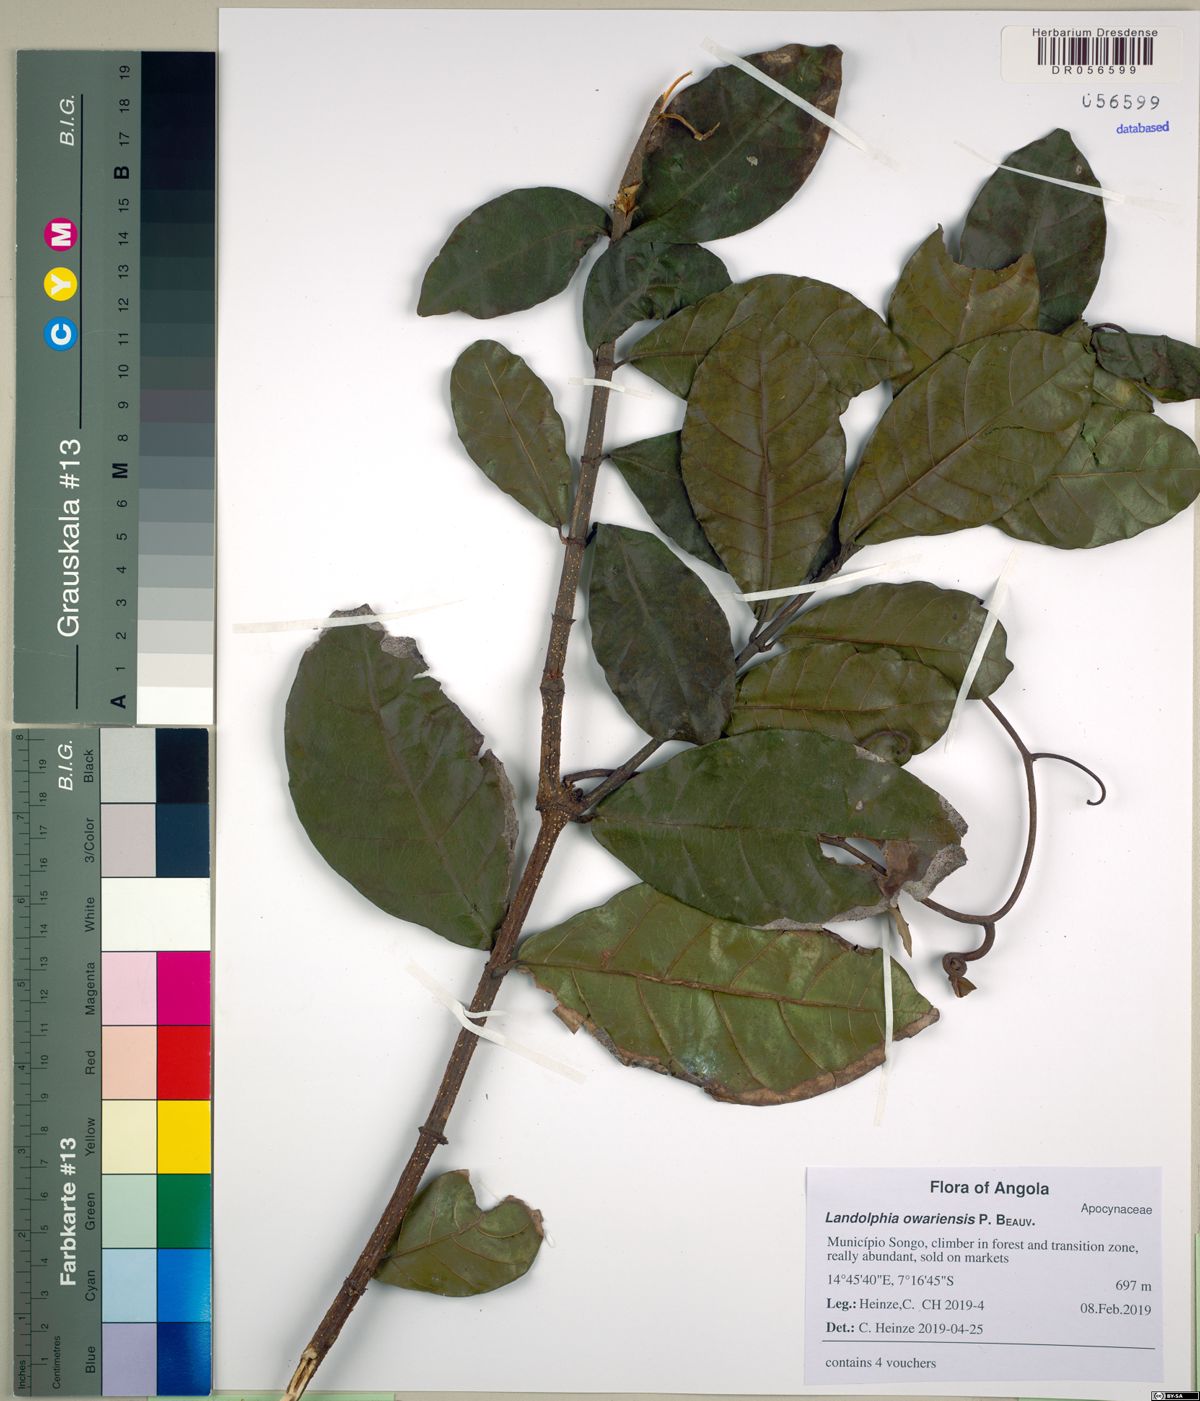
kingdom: Plantae
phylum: Tracheophyta
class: Magnoliopsida
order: Gentianales
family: Apocynaceae
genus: Clitandra
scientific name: Clitandra cymulosa
